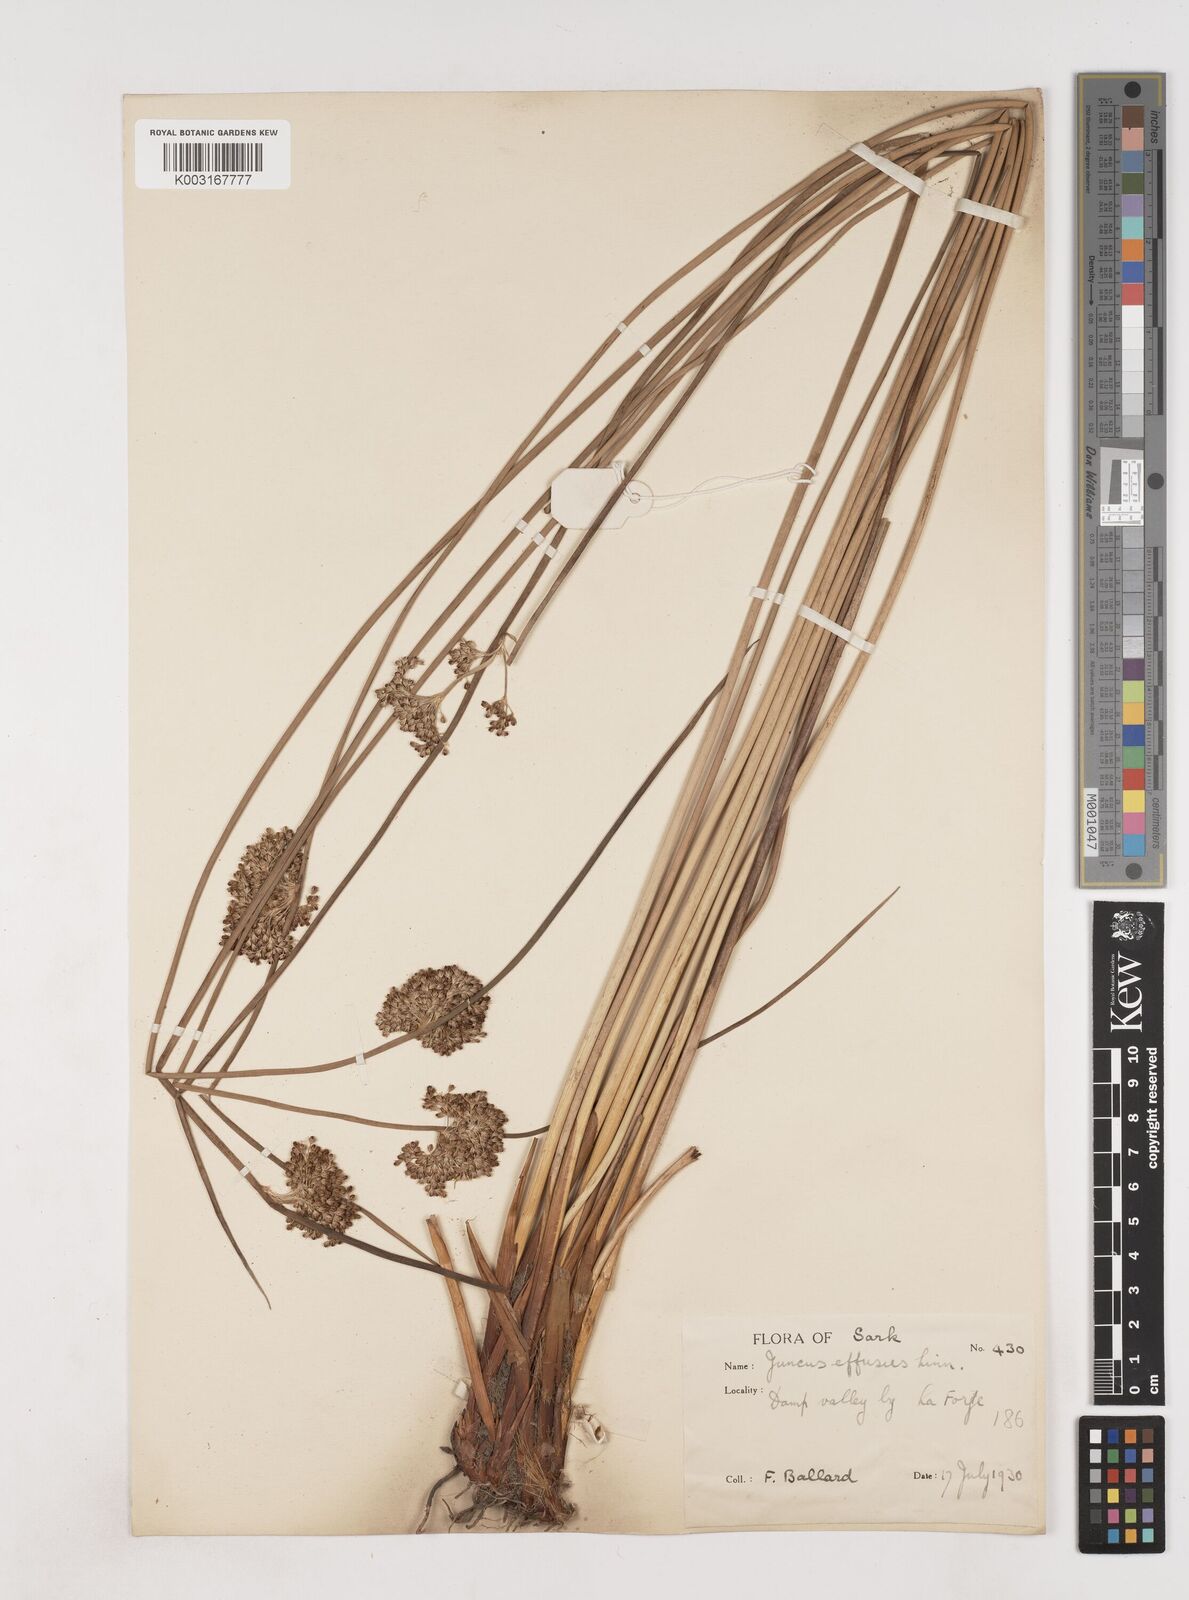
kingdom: Plantae
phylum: Tracheophyta
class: Liliopsida
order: Poales
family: Juncaceae
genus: Juncus
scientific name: Juncus effusus
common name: Soft rush
